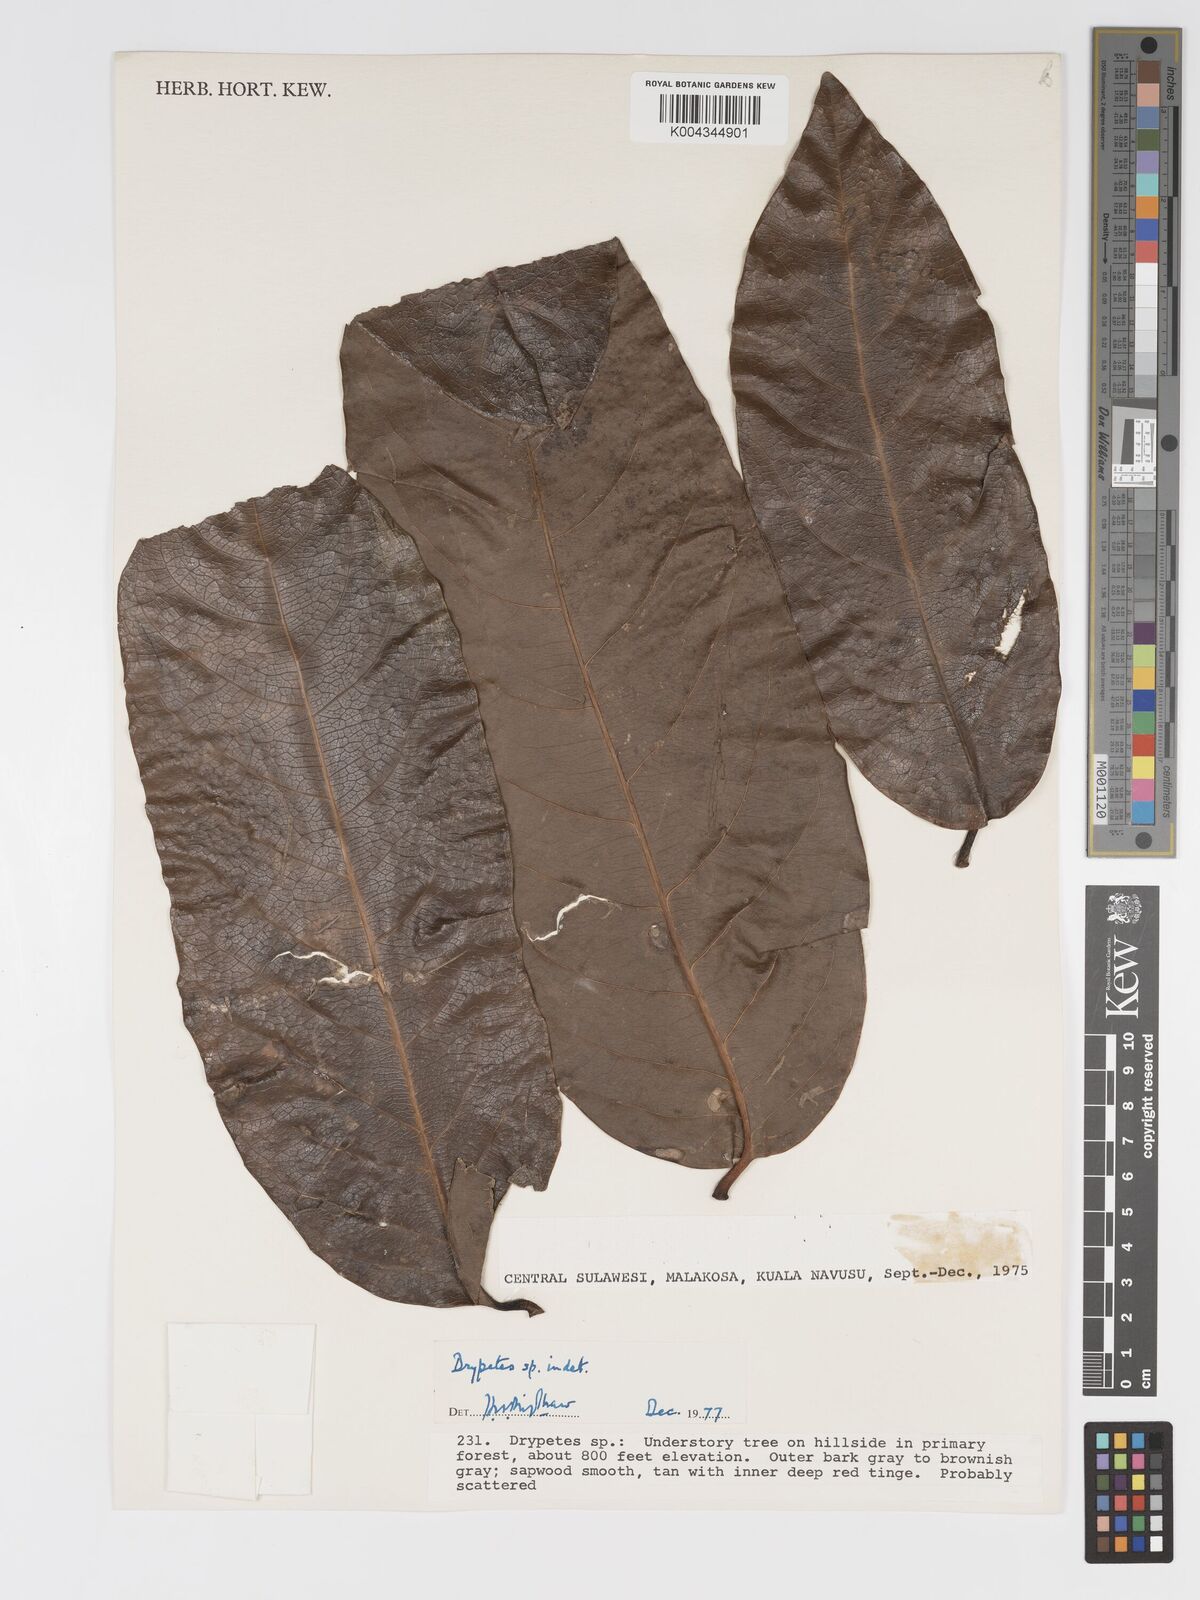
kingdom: Plantae
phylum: Tracheophyta
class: Magnoliopsida
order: Malpighiales
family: Putranjivaceae
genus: Drypetes
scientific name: Drypetes
